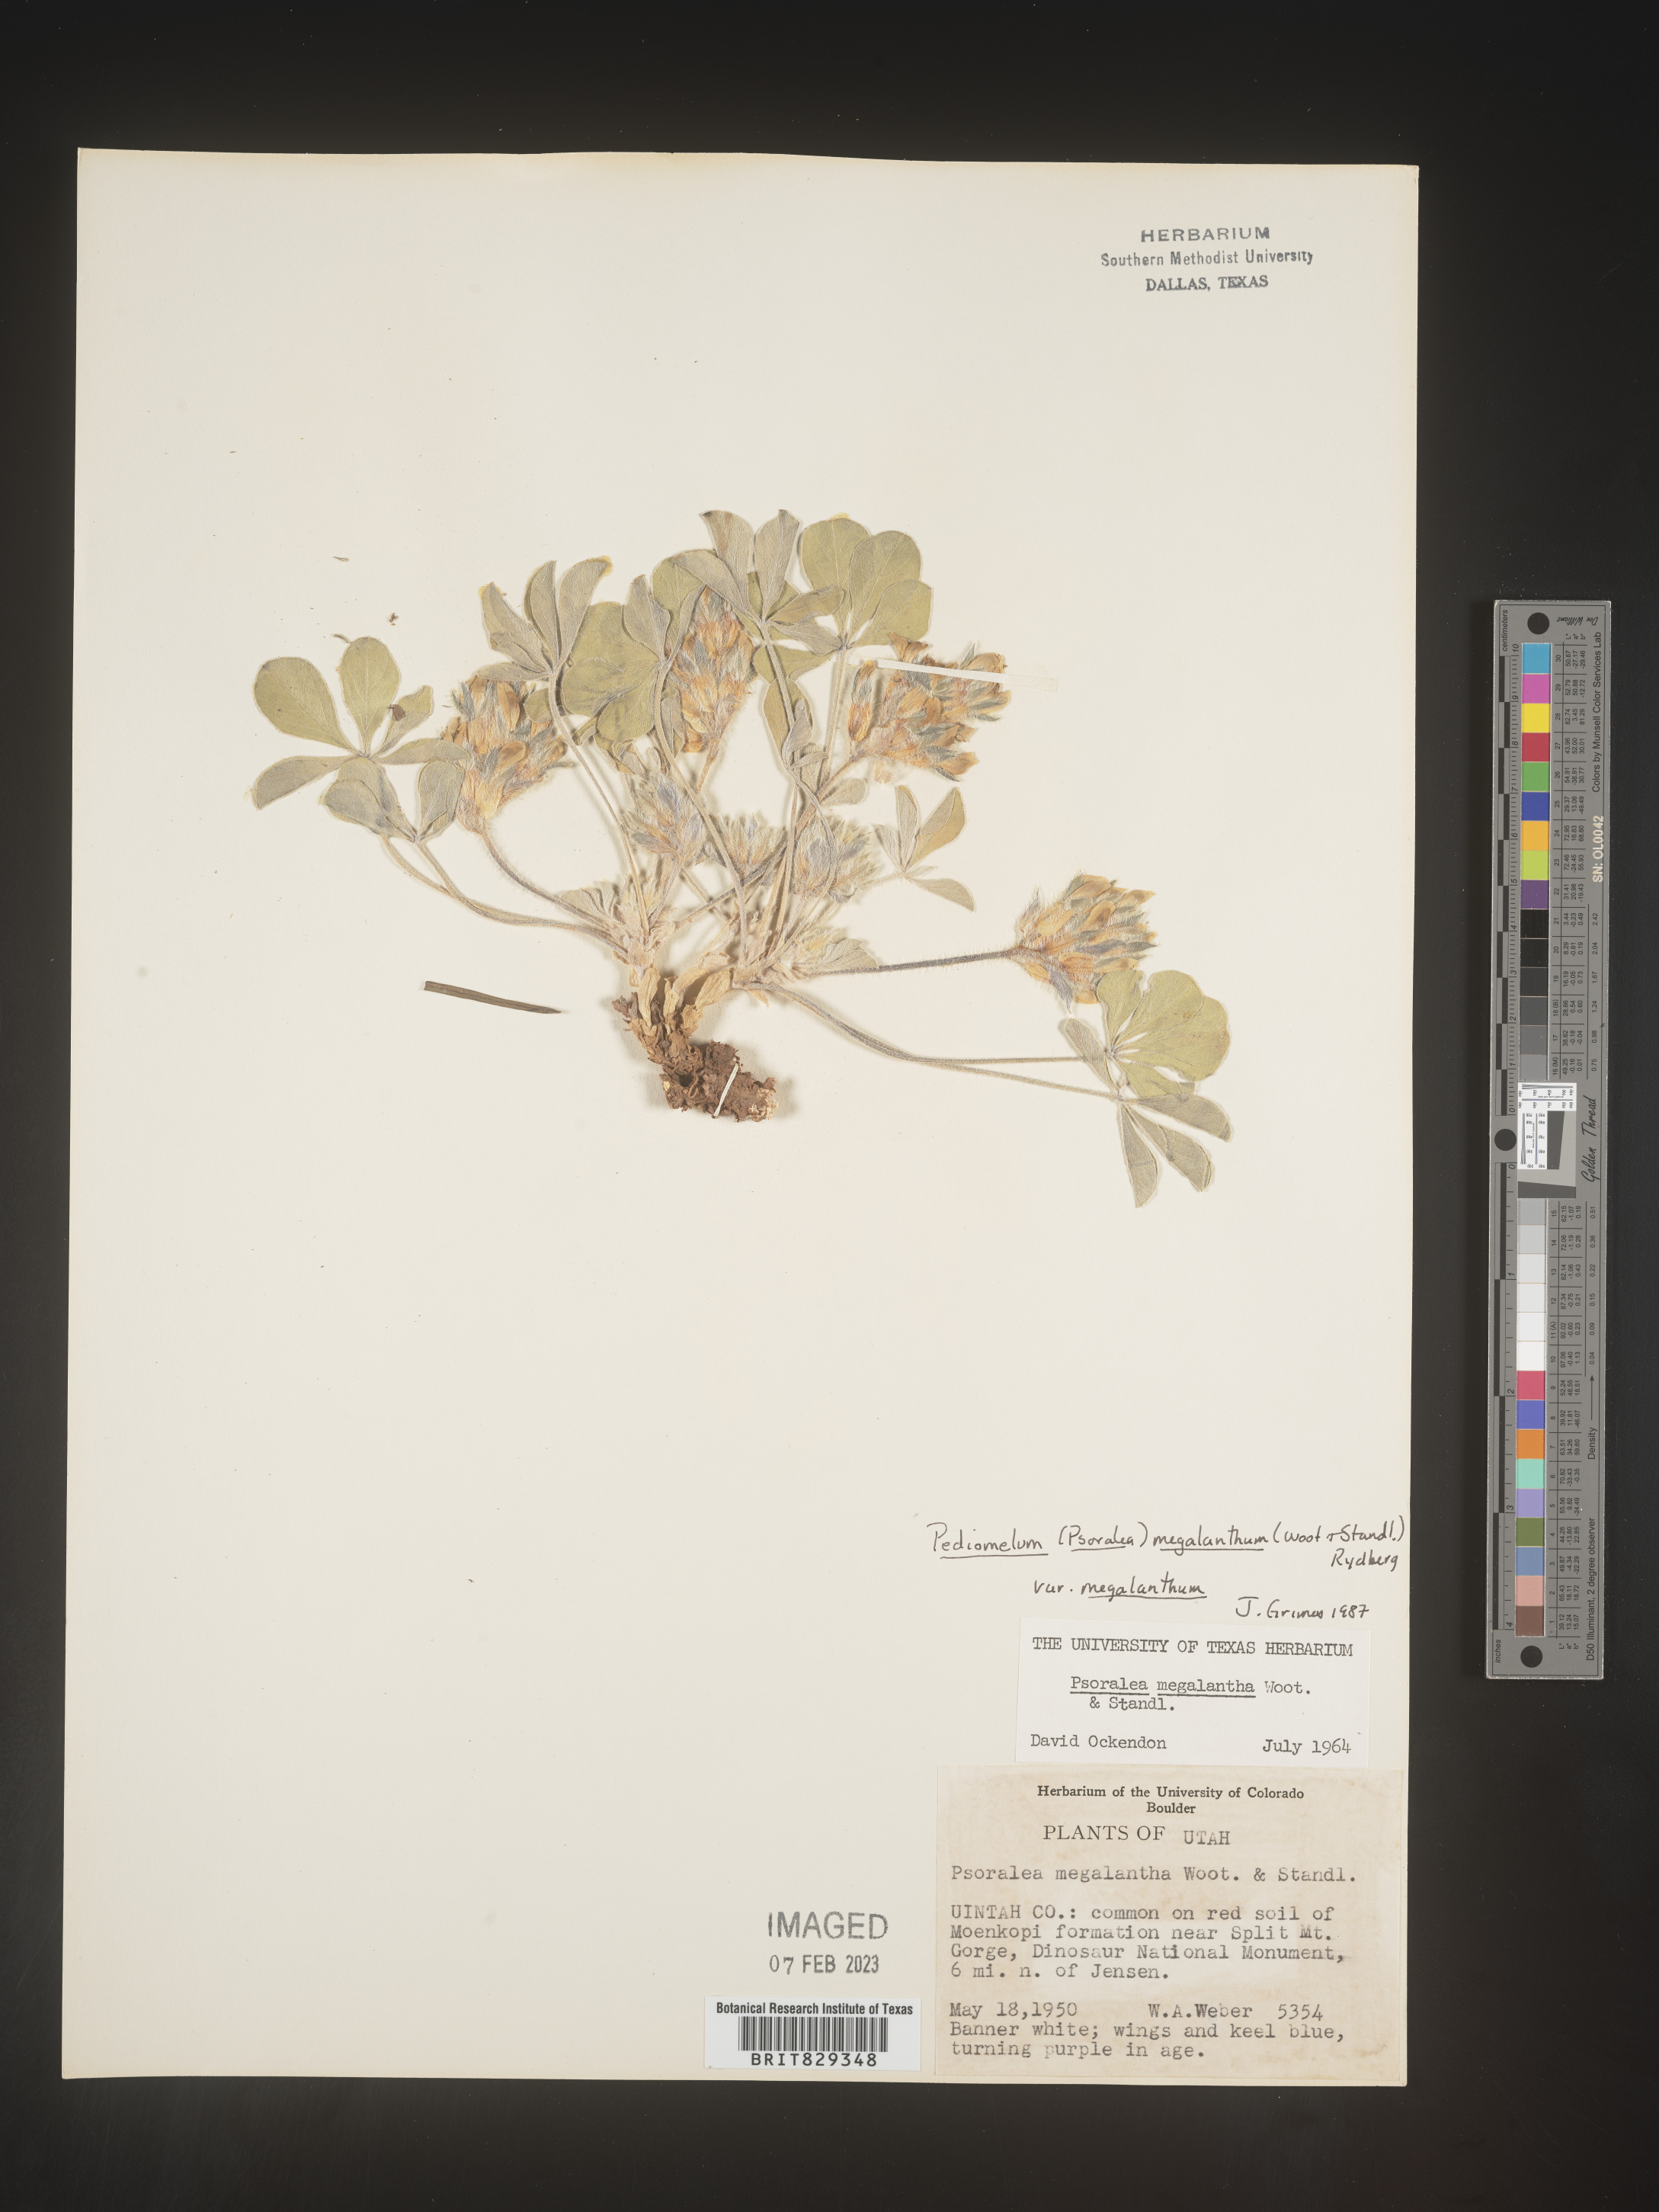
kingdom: Plantae
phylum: Tracheophyta
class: Magnoliopsida
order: Fabales
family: Fabaceae
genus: Psoralea
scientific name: Psoralea
